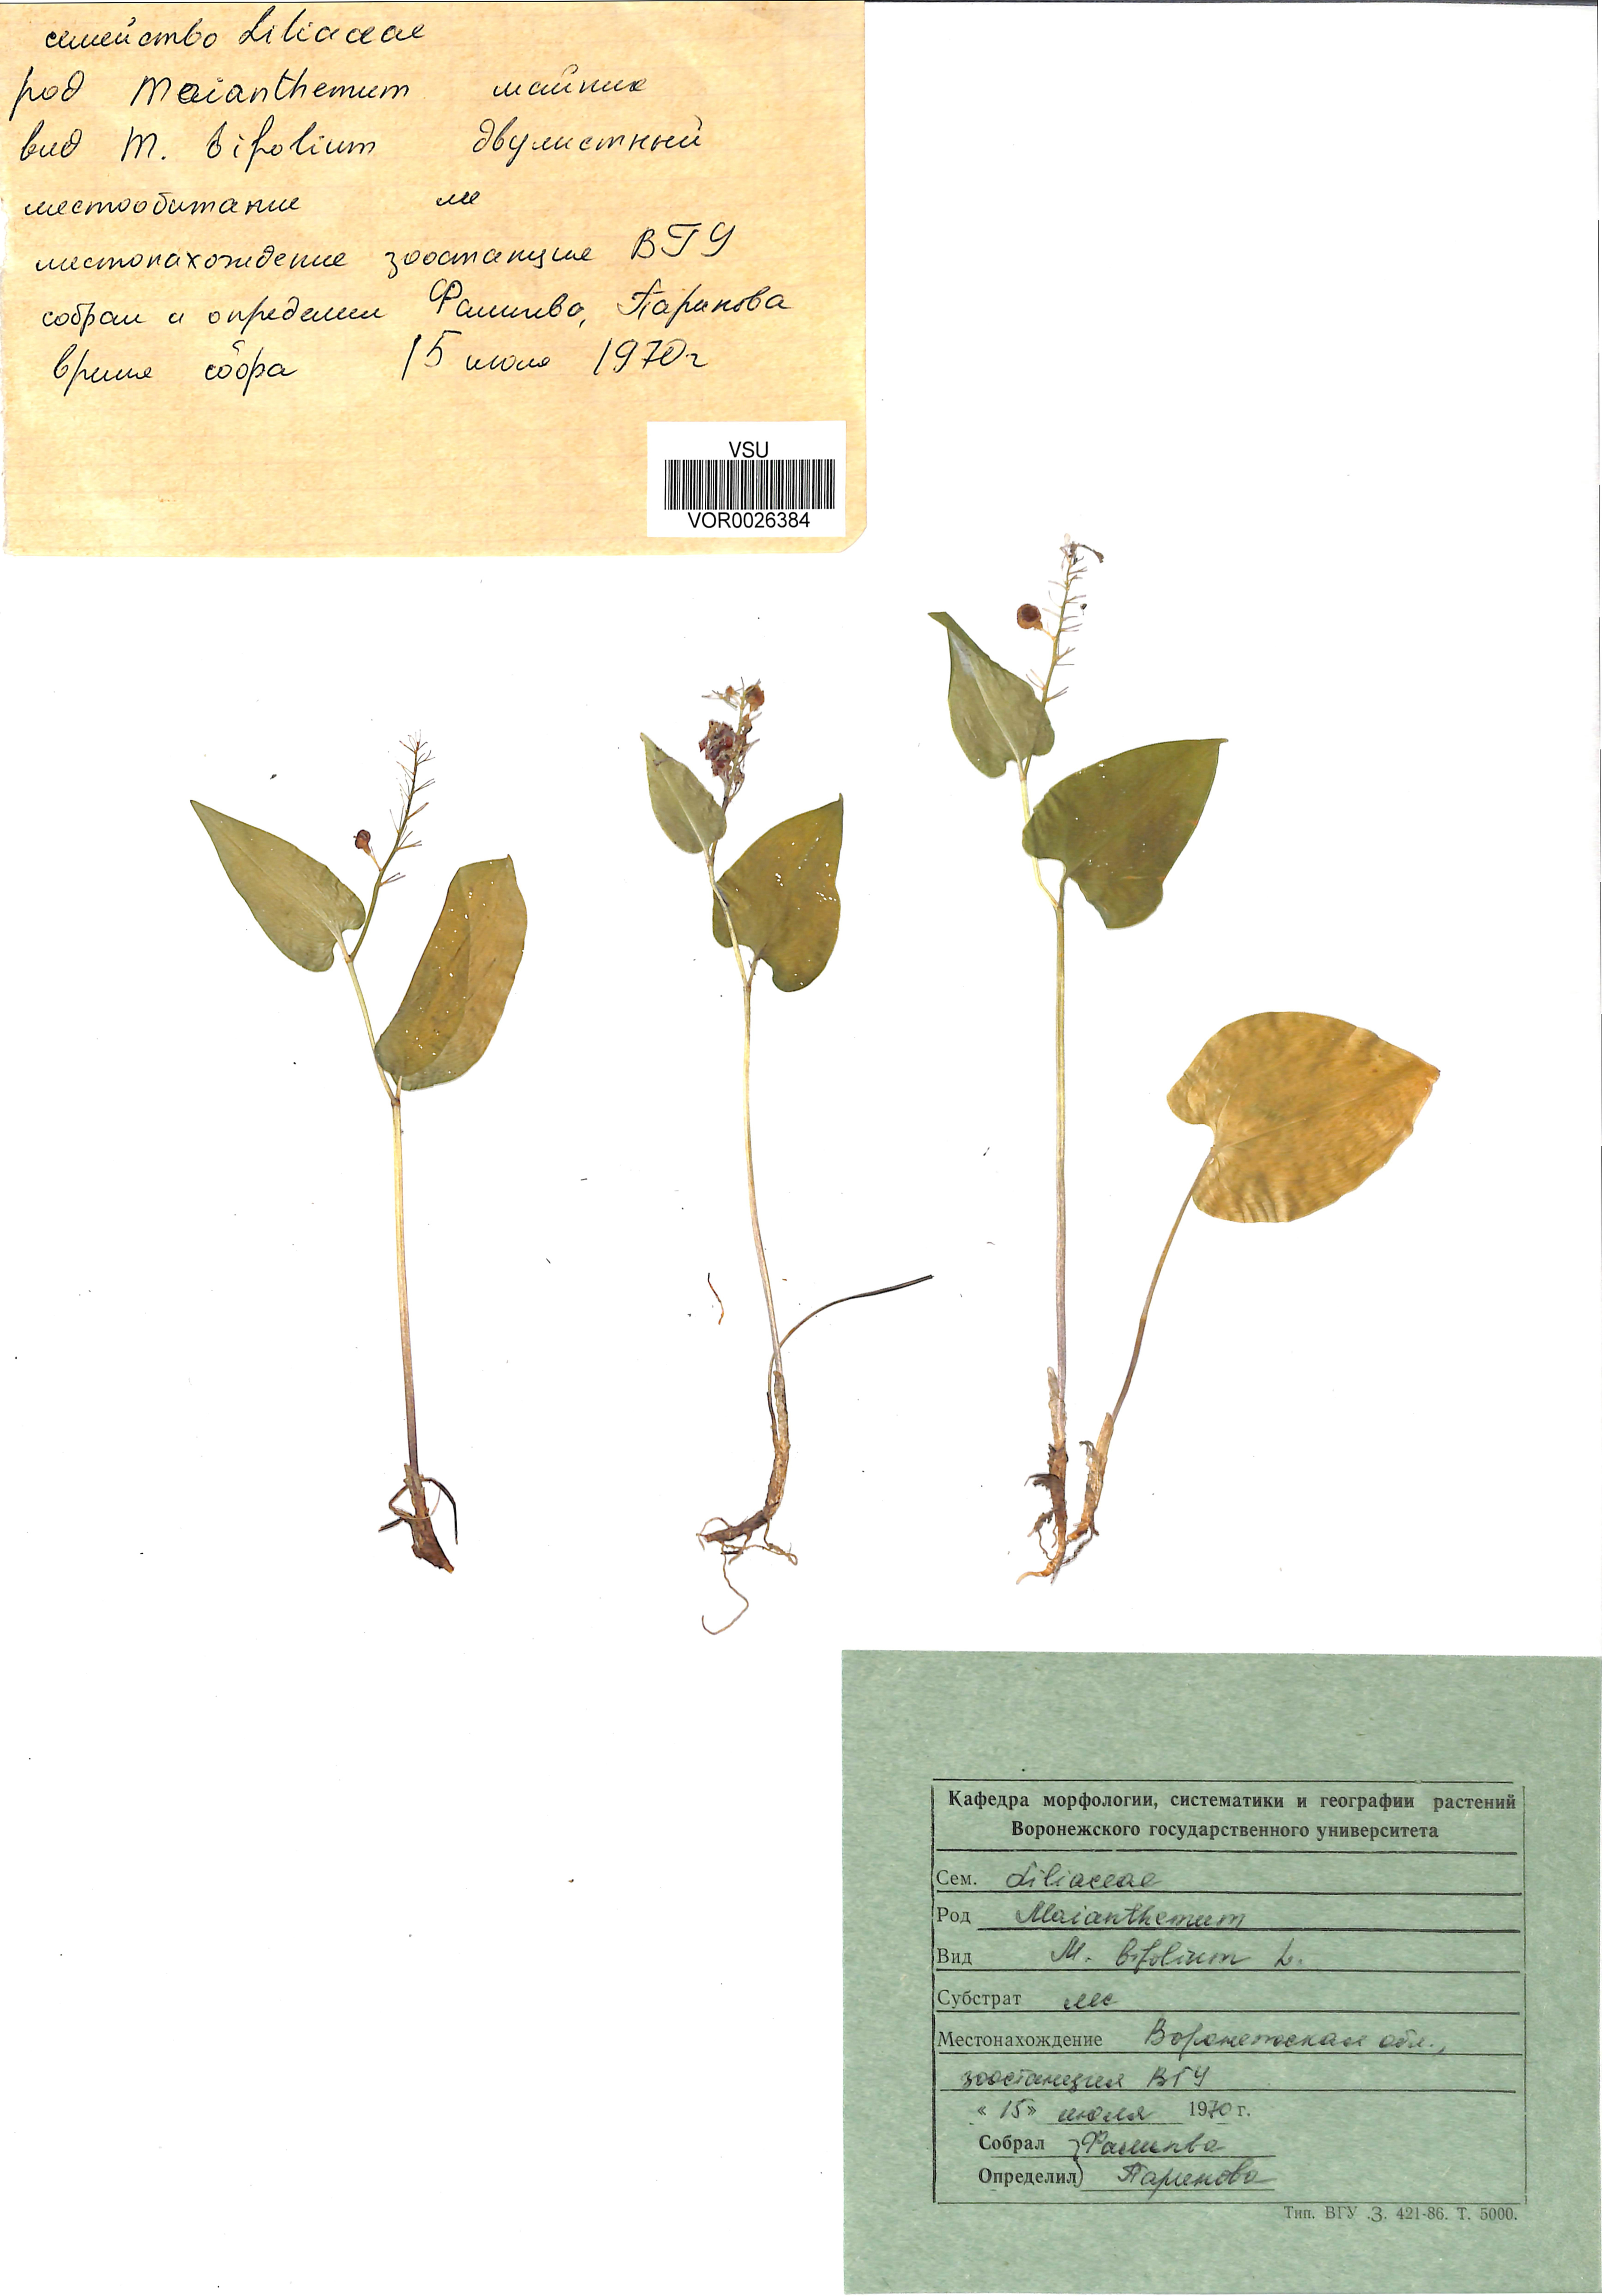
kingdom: Plantae
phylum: Tracheophyta
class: Liliopsida
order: Asparagales
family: Asparagaceae
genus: Maianthemum
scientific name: Maianthemum bifolium
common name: May lily
